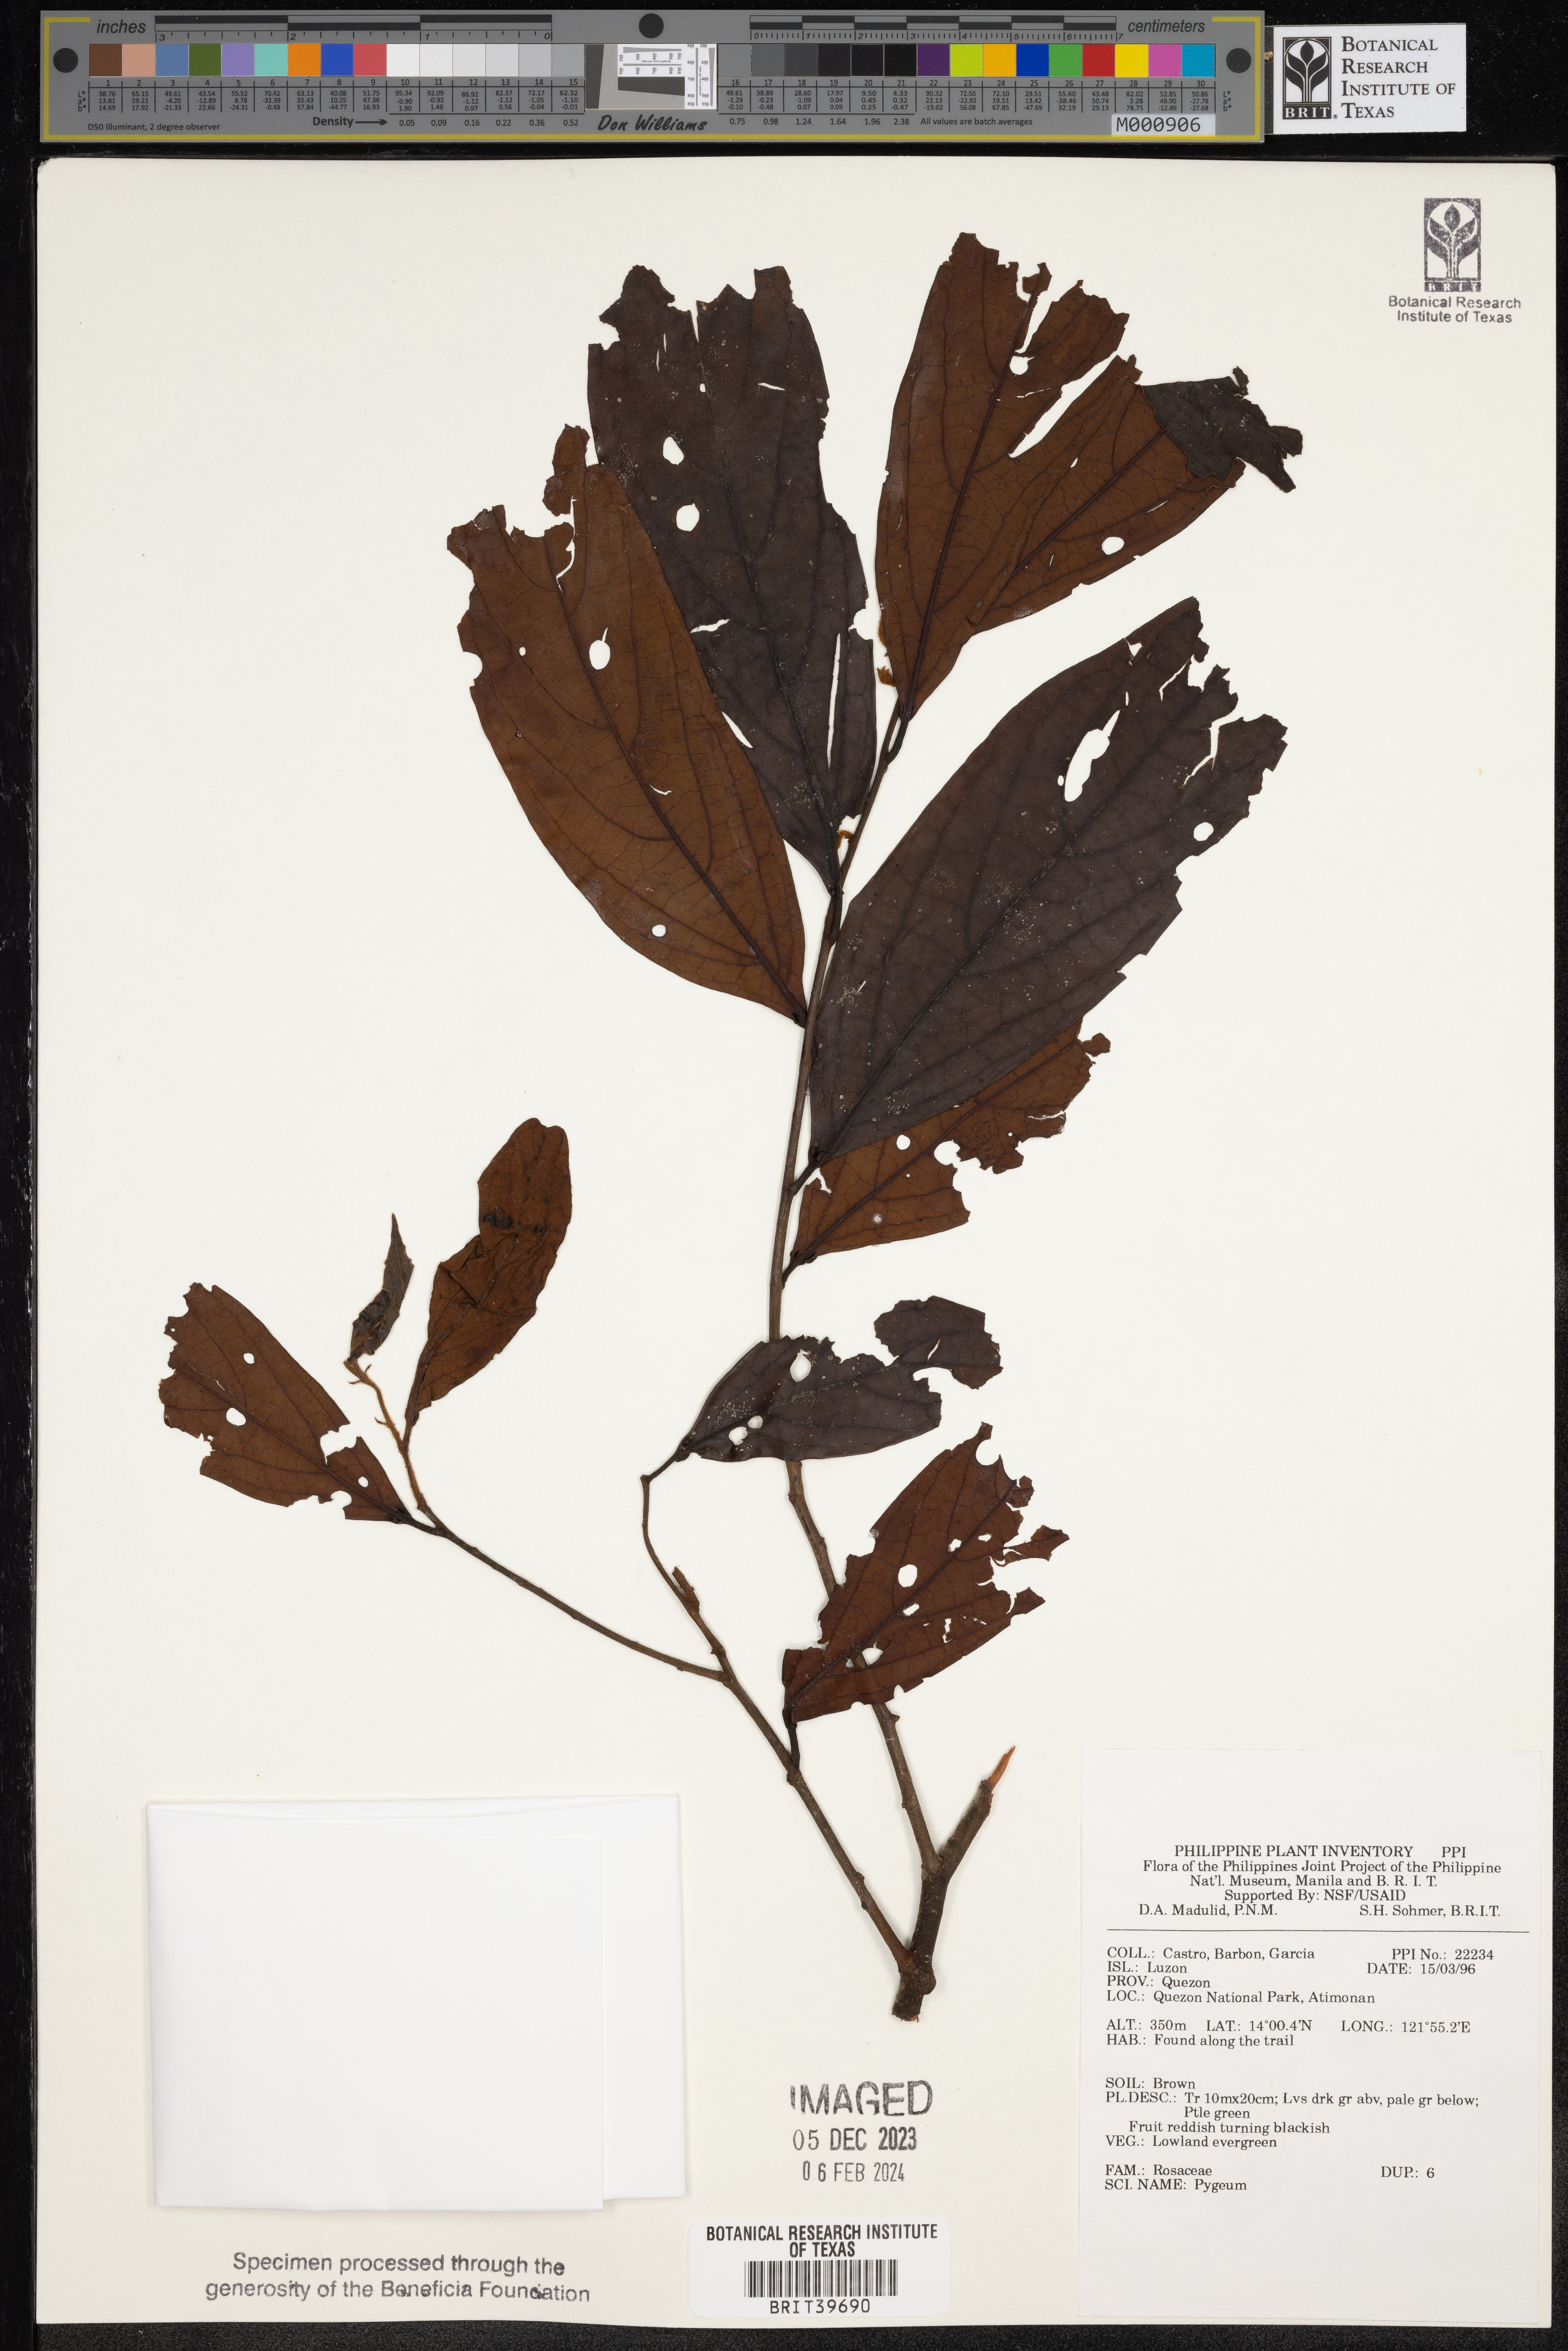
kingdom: Plantae
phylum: Tracheophyta
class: Magnoliopsida
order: Rosales
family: Rosaceae
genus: Prunus
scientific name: Prunus
